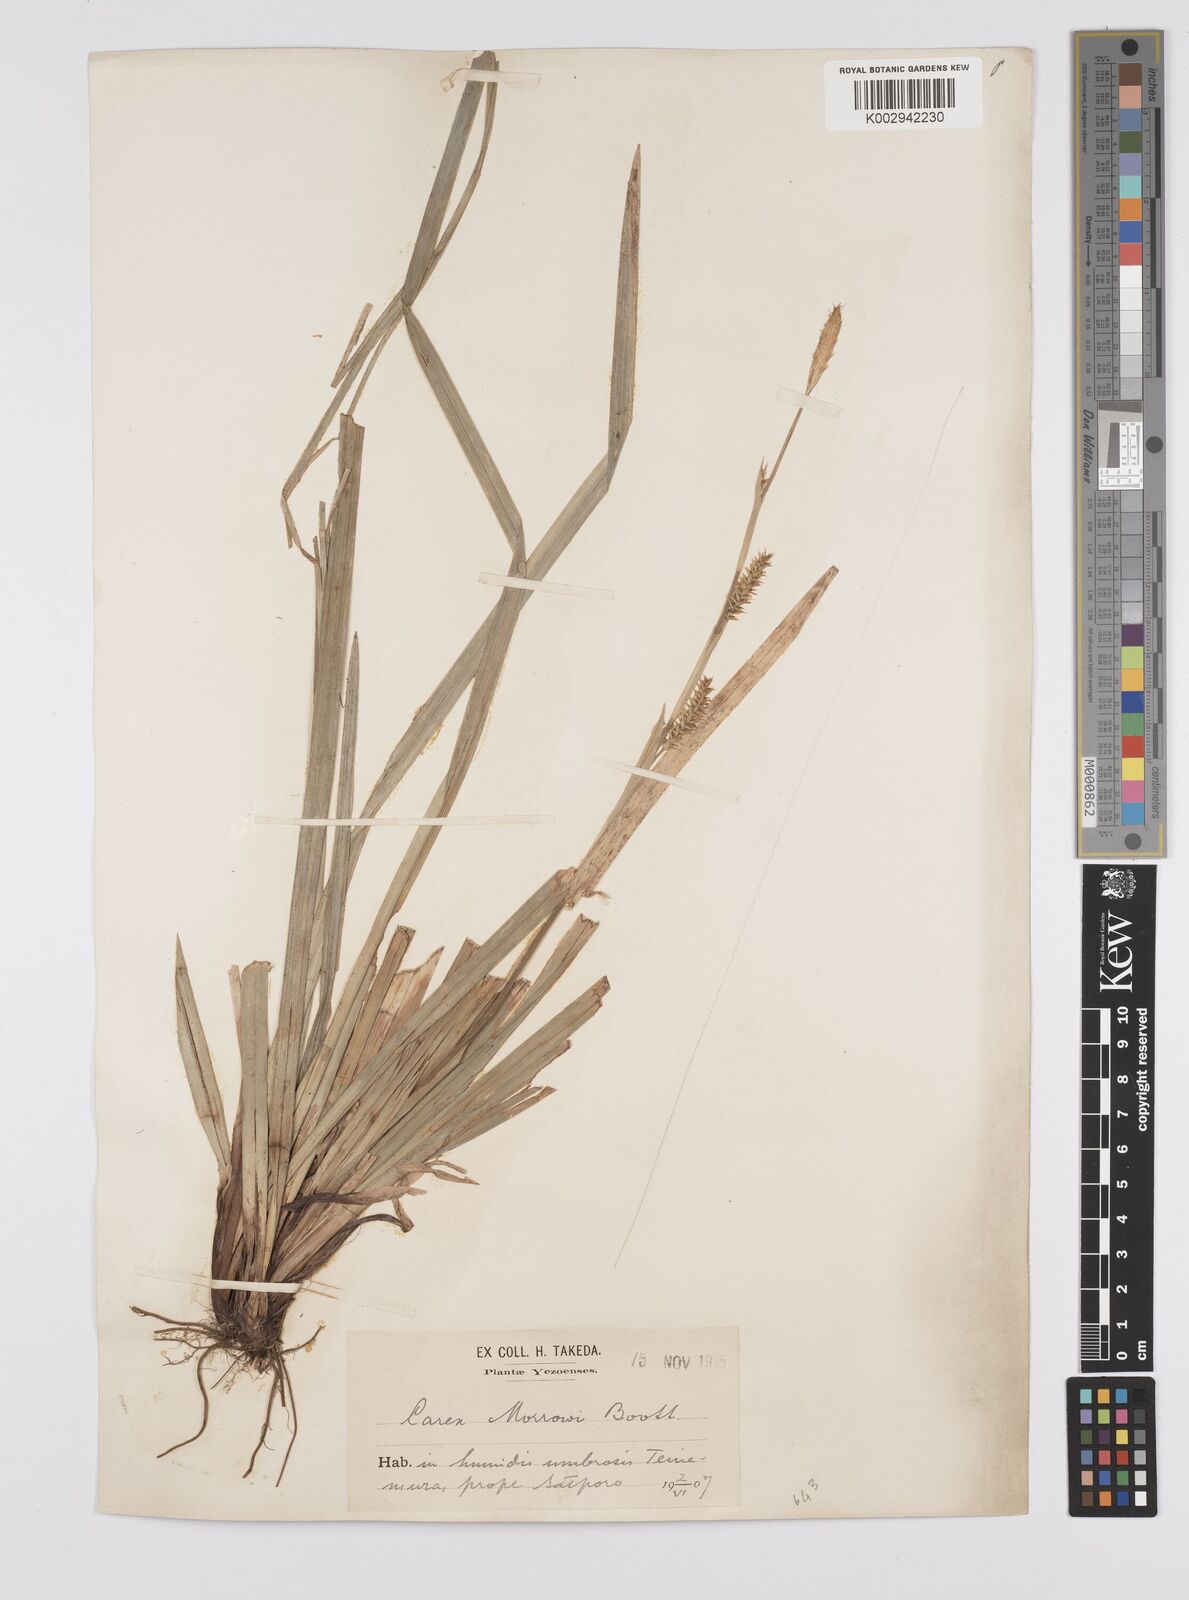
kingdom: Plantae
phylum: Tracheophyta
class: Liliopsida
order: Poales
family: Cyperaceae
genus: Carex
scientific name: Carex morrowii
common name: Japanese sedge
